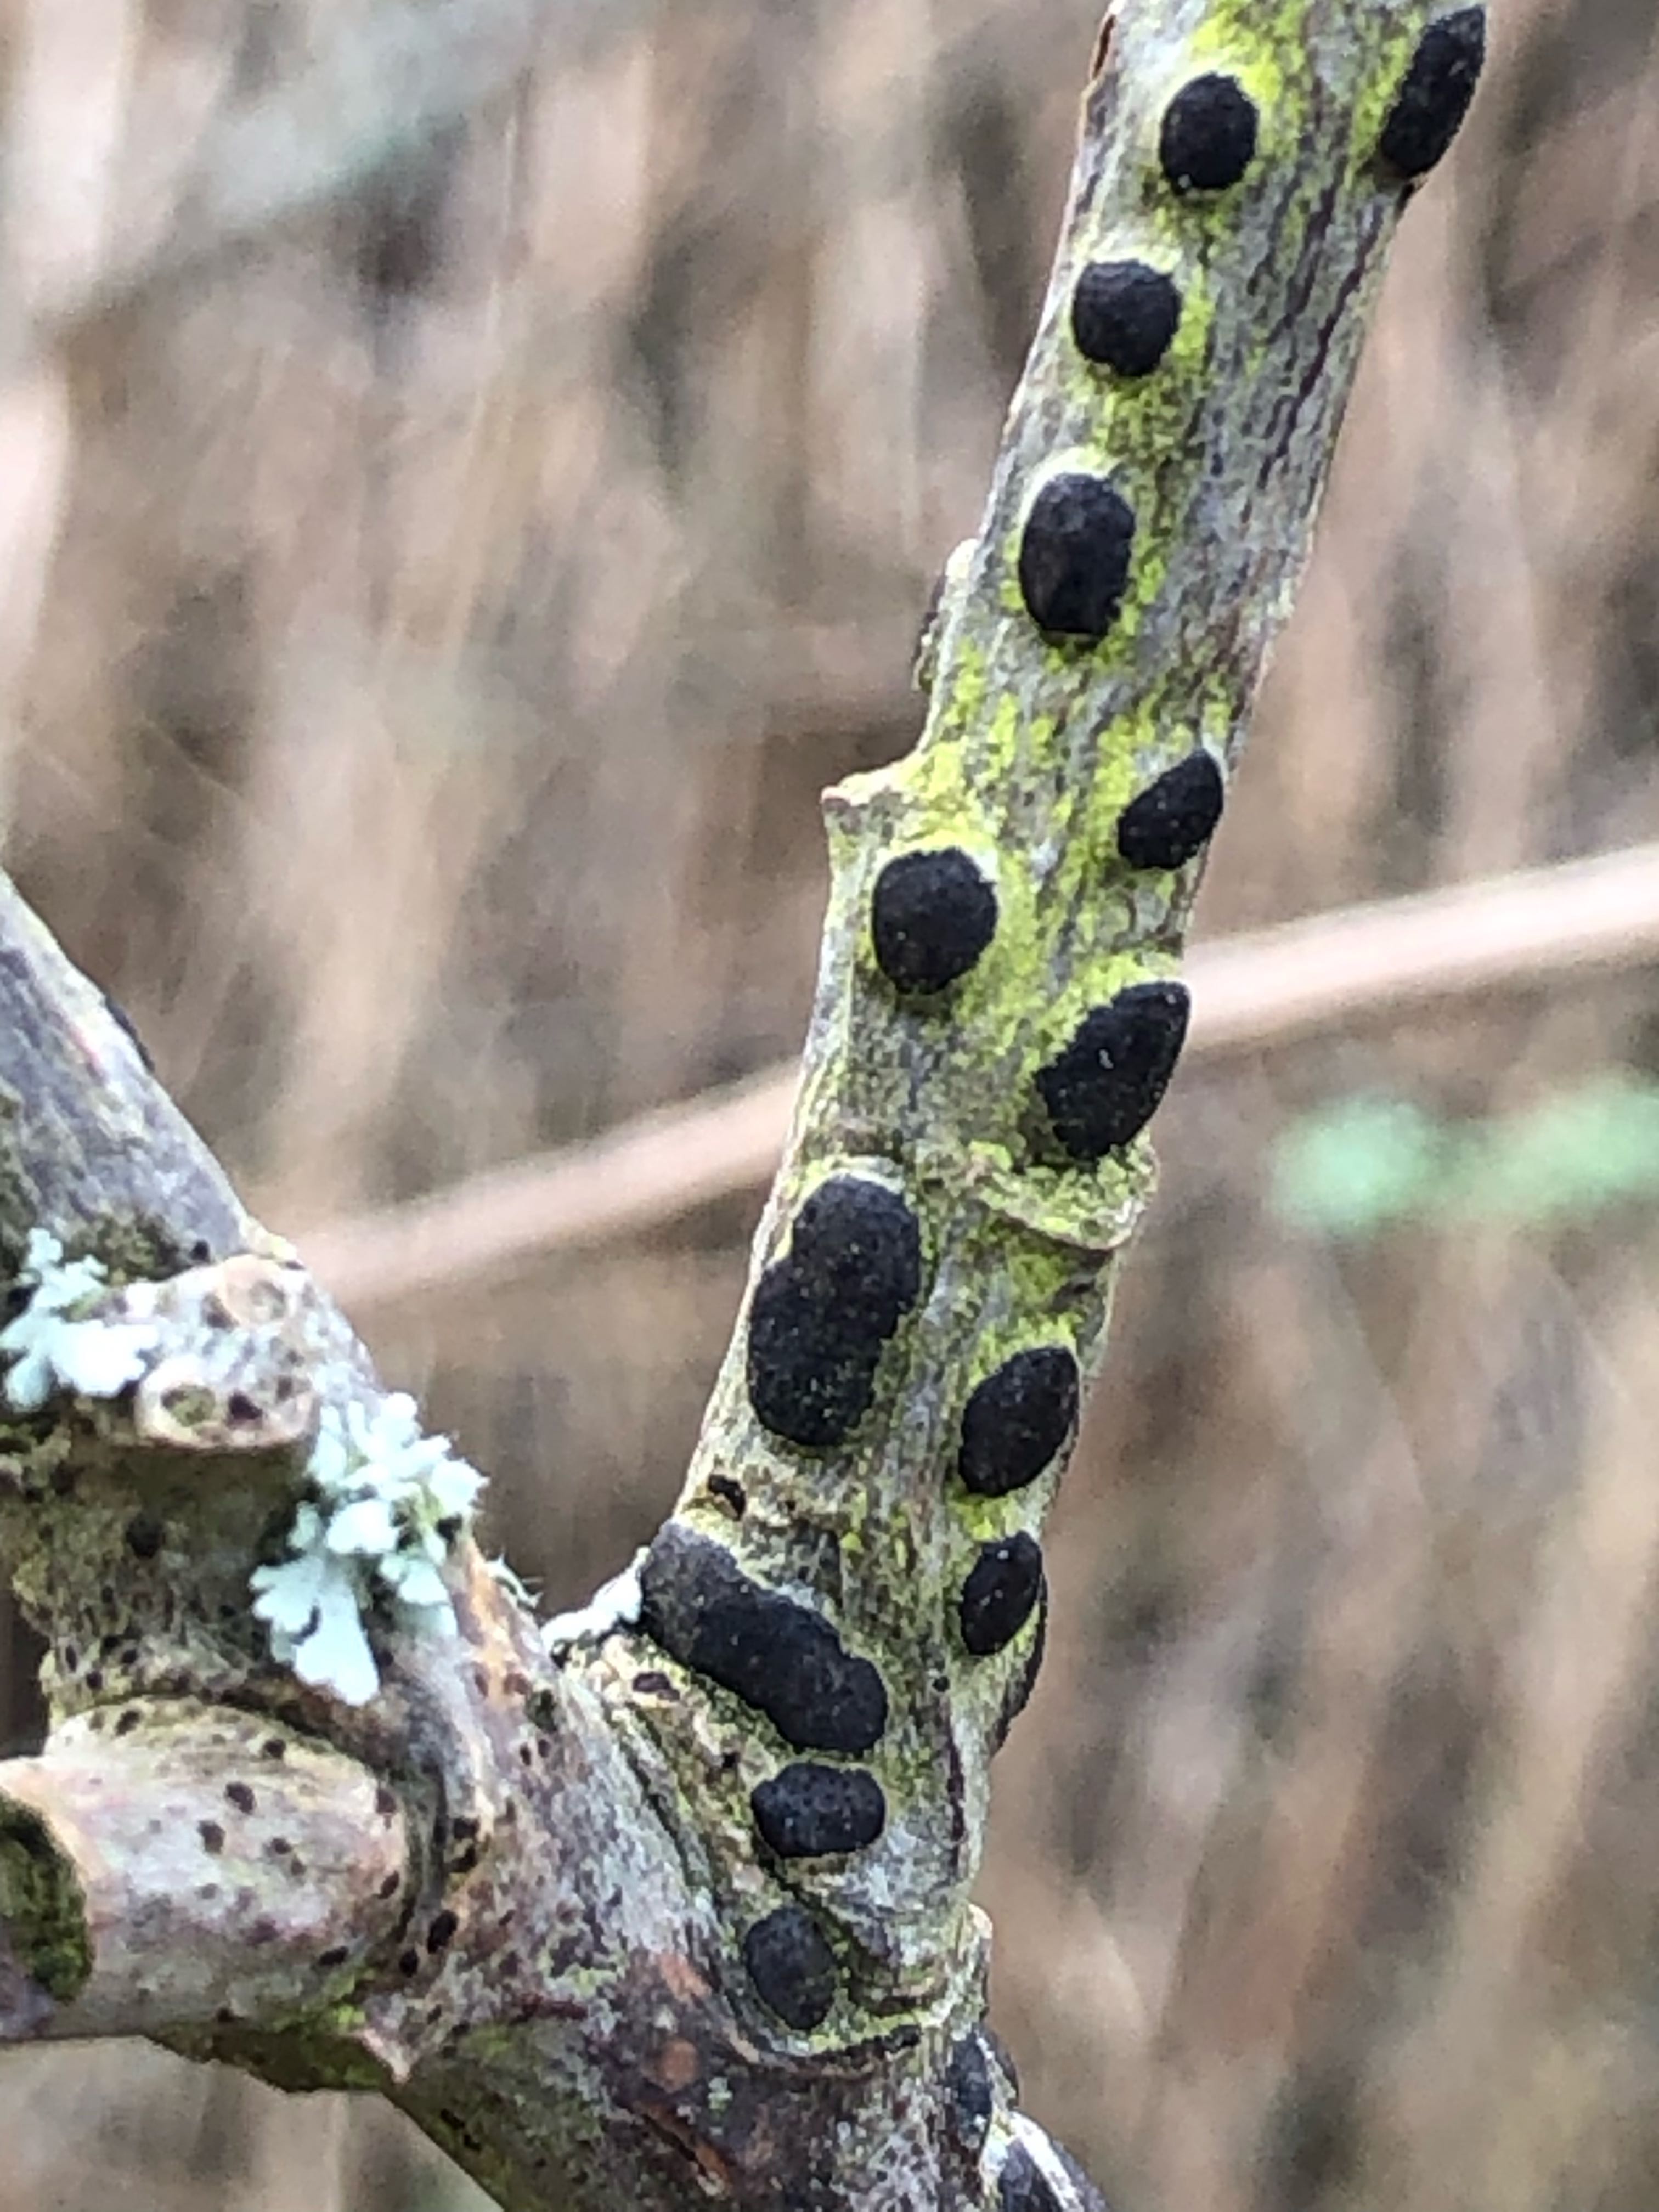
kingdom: Fungi
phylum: Ascomycota
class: Sordariomycetes
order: Xylariales
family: Diatrypaceae
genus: Diatrype
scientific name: Diatrype bullata
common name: pile-kulskorpe
